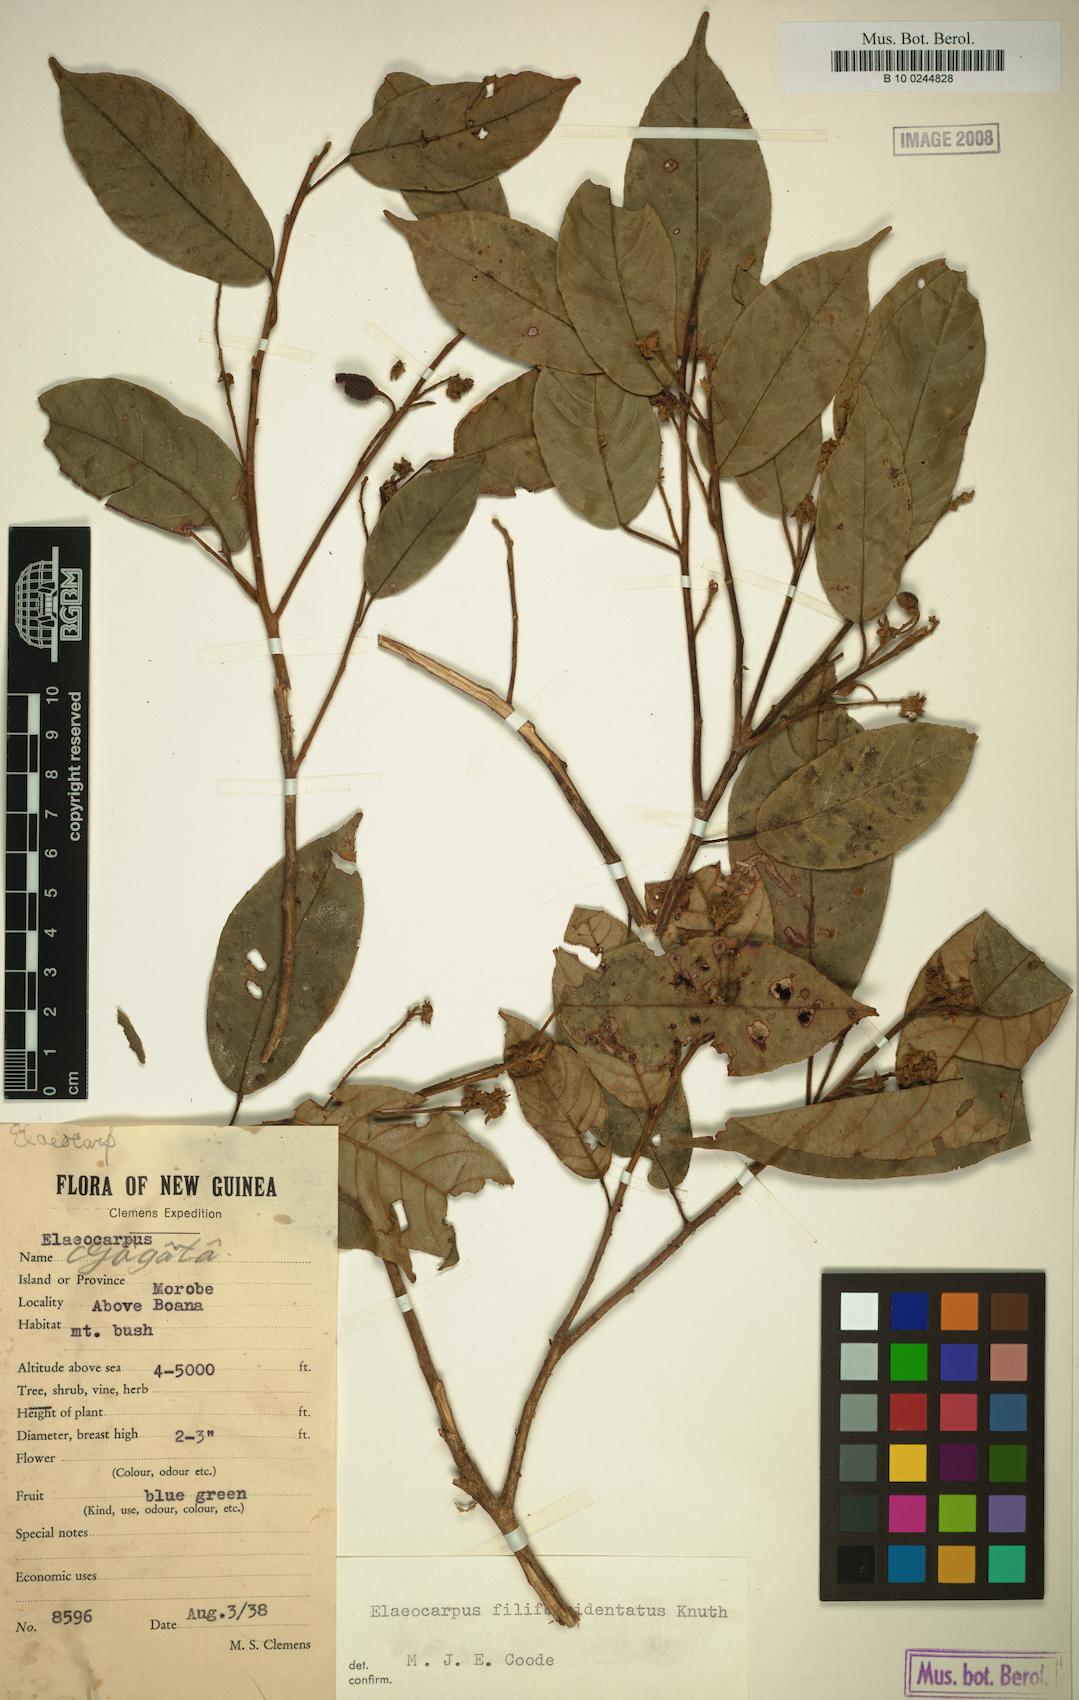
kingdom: Plantae
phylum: Tracheophyta
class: Magnoliopsida
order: Oxalidales
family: Elaeocarpaceae
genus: Elaeocarpus
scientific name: Elaeocarpus filiformidentatus
